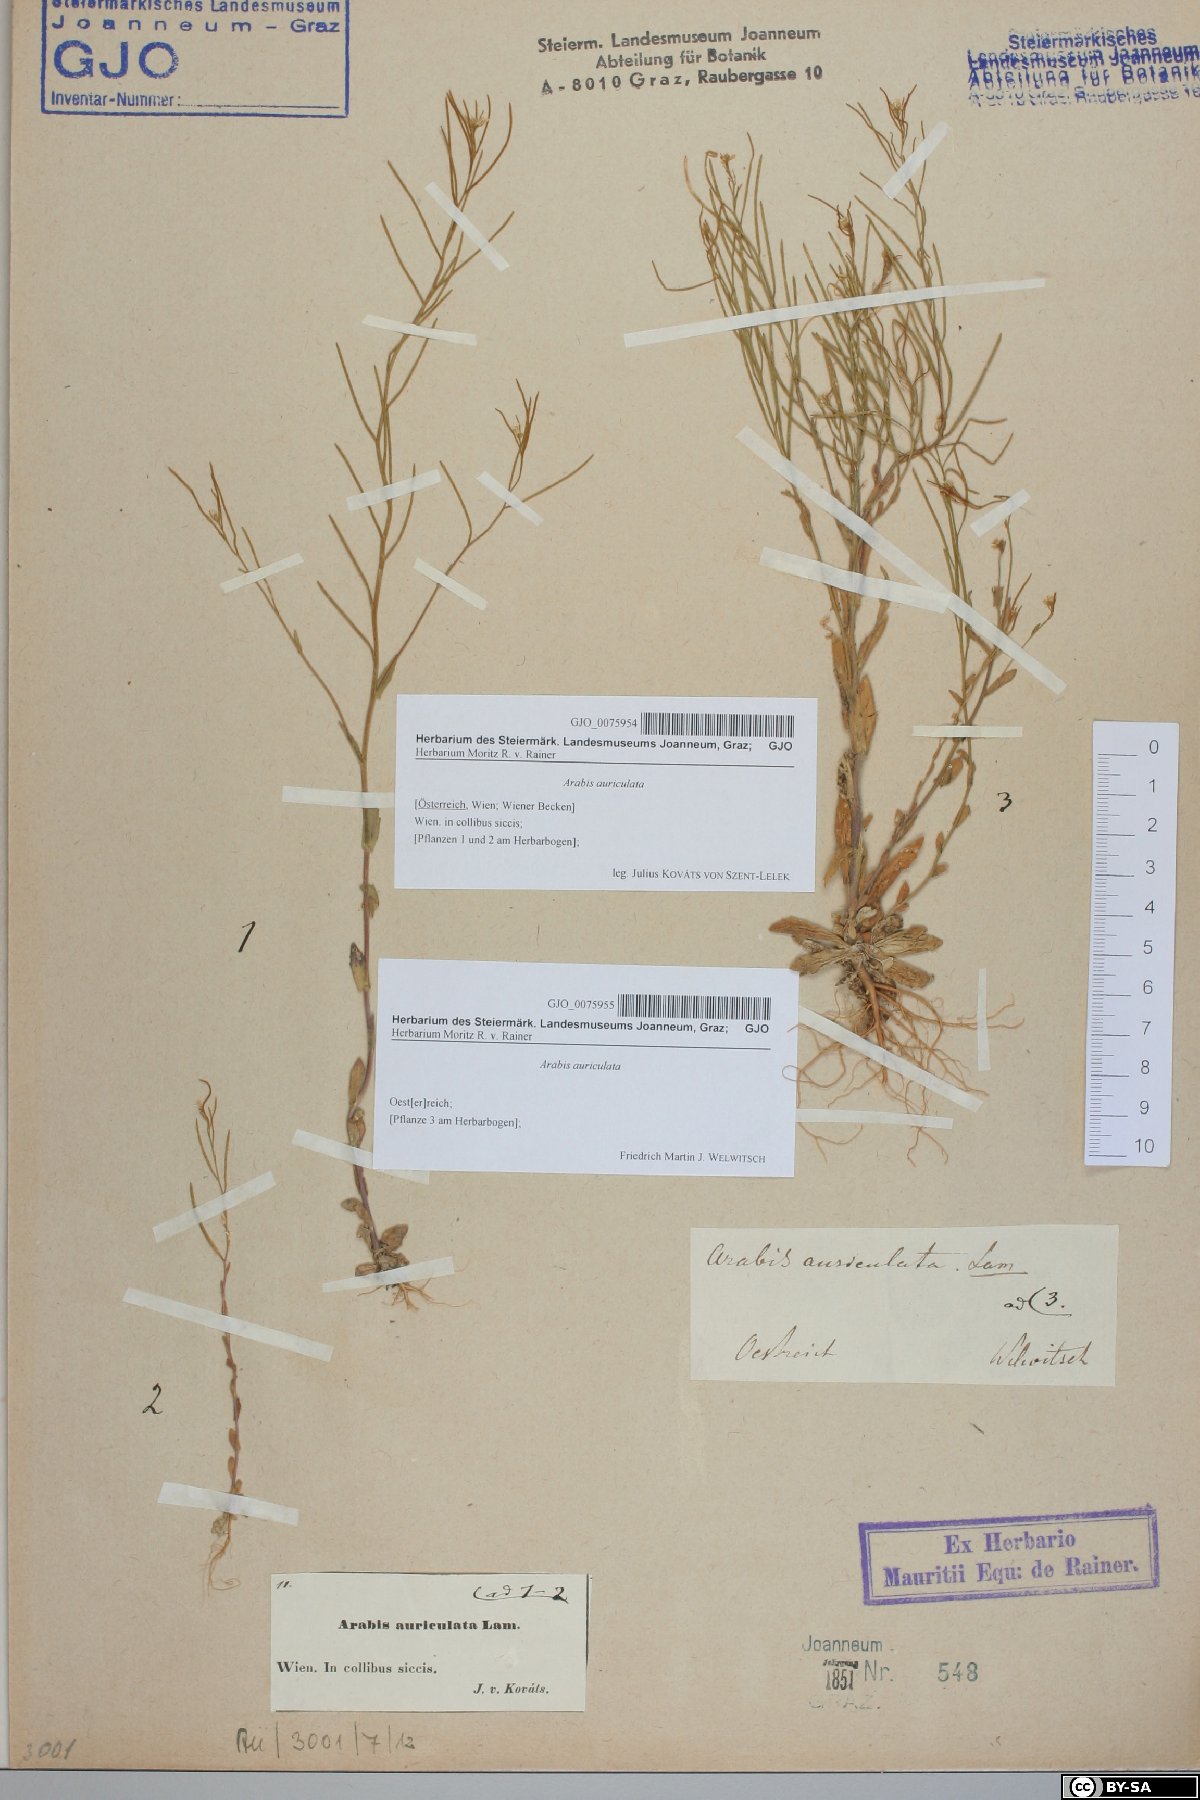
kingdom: Plantae
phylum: Tracheophyta
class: Magnoliopsida
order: Brassicales
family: Brassicaceae
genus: Arabis
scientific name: Arabis auriculata
